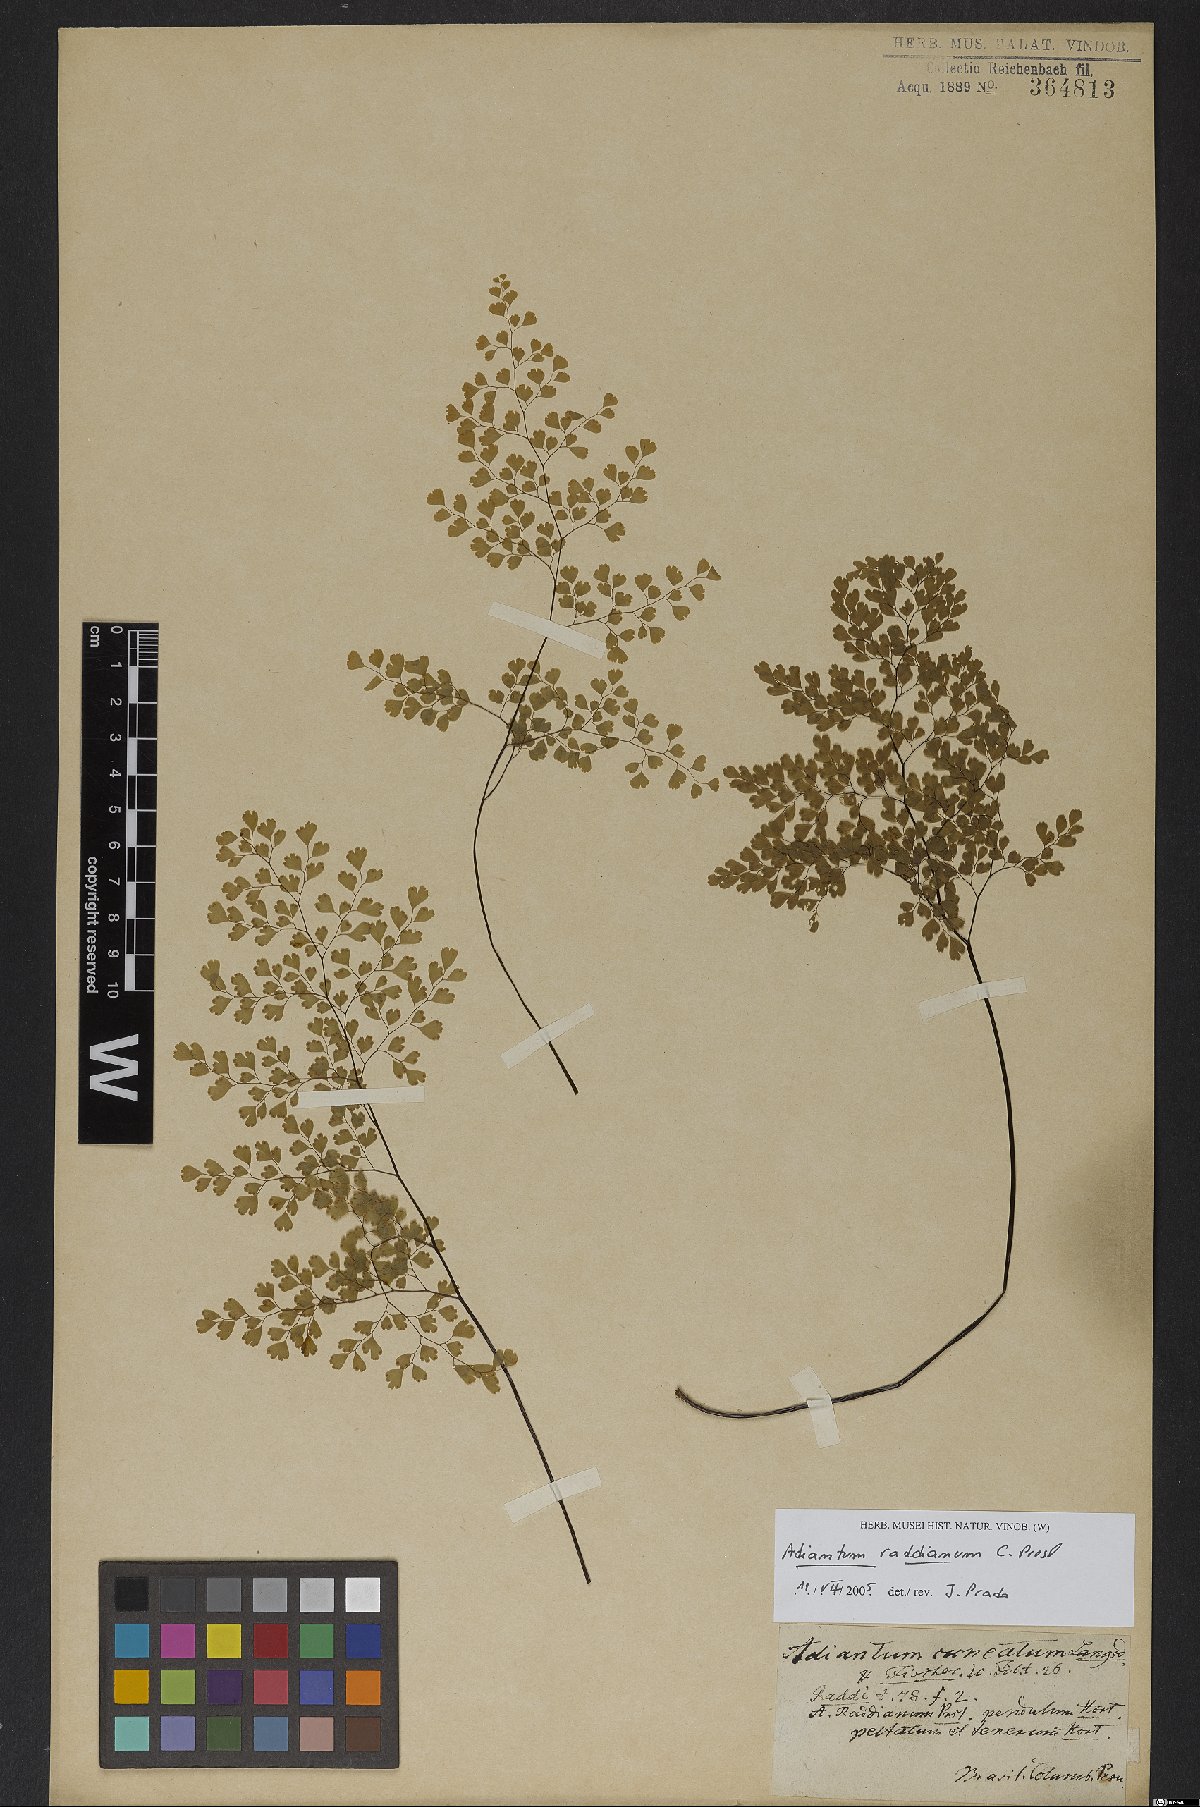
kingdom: Plantae
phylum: Tracheophyta
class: Polypodiopsida
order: Polypodiales
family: Pteridaceae
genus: Adiantum
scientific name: Adiantum raddianum
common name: Delta maidenhair fern
